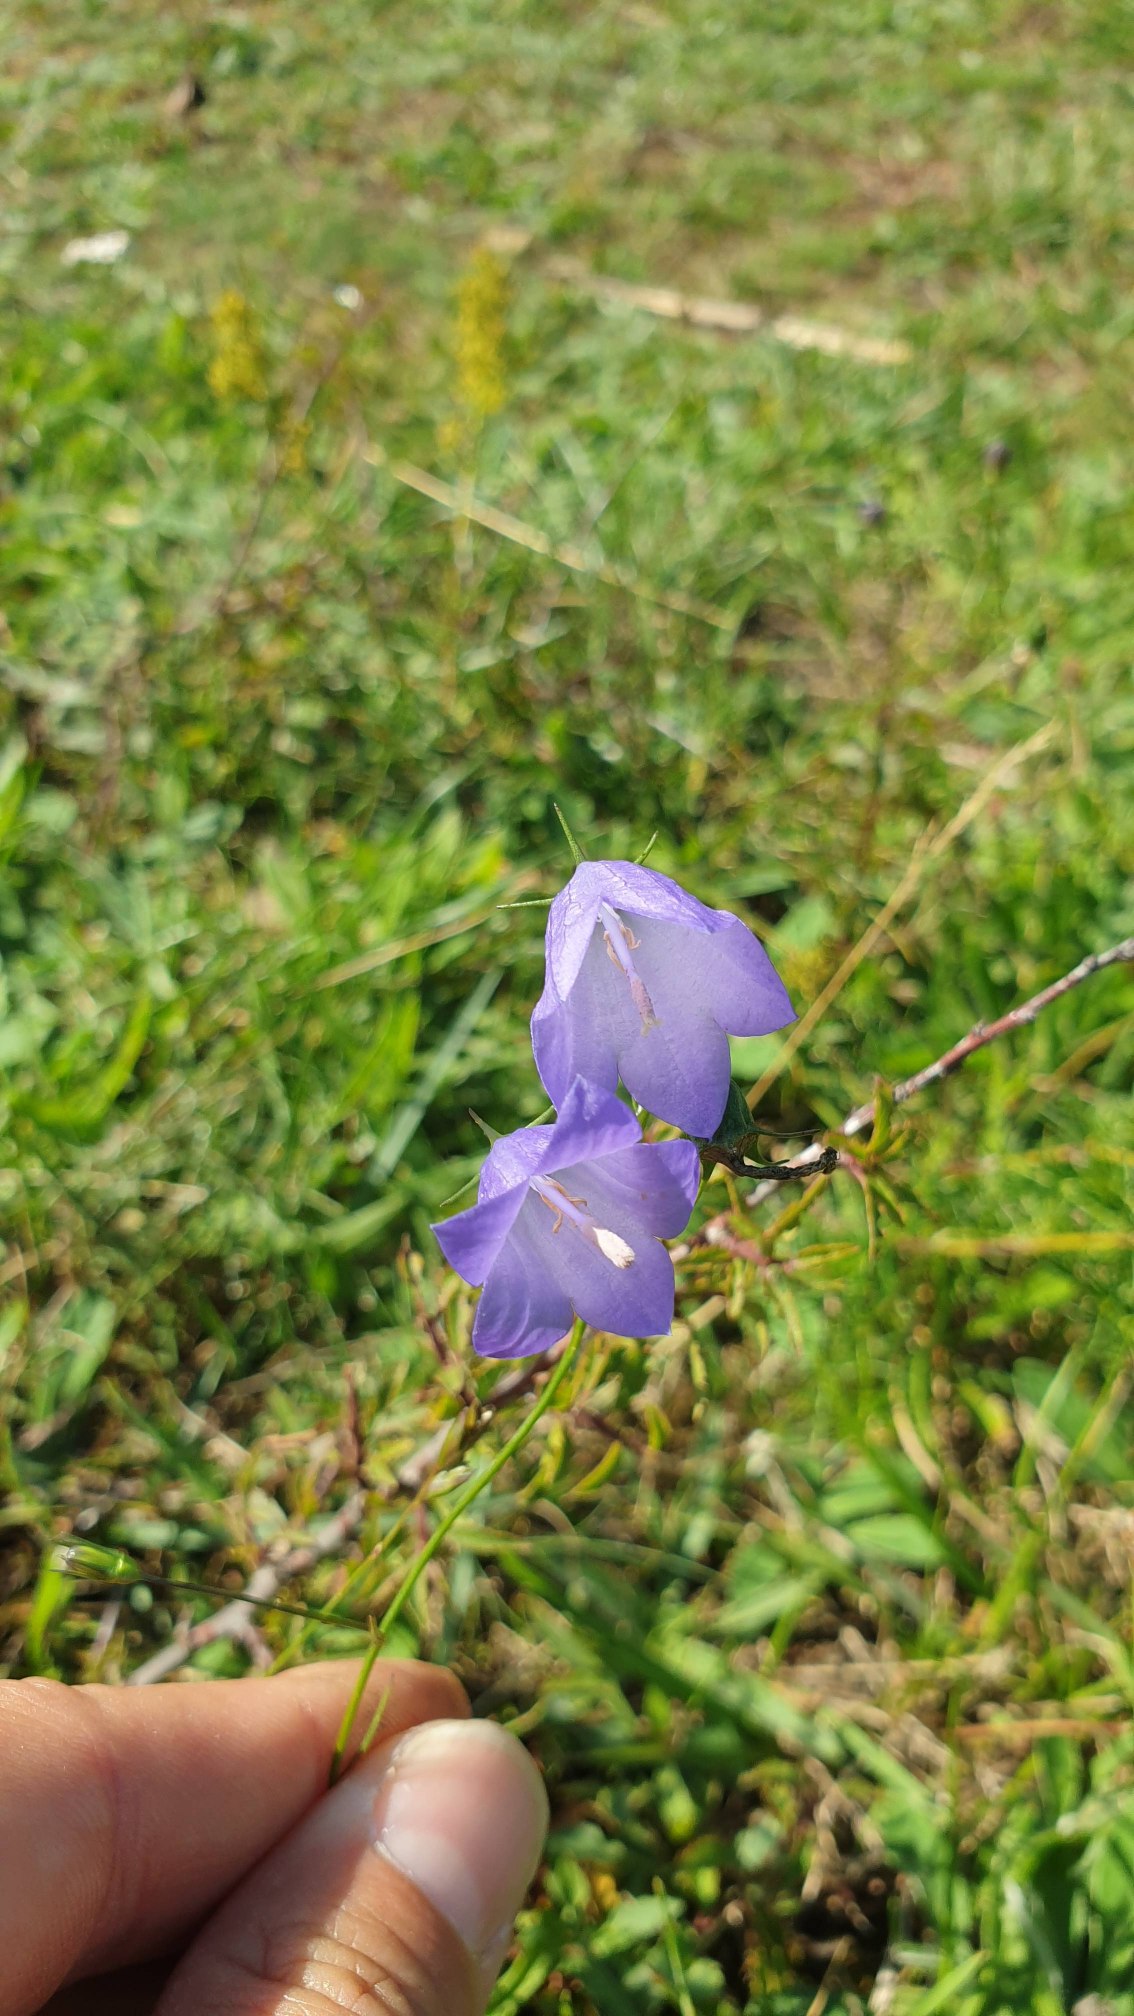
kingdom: Plantae
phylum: Tracheophyta
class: Magnoliopsida
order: Asterales
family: Campanulaceae
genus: Campanula
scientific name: Campanula rotundifolia
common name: Liden klokke
